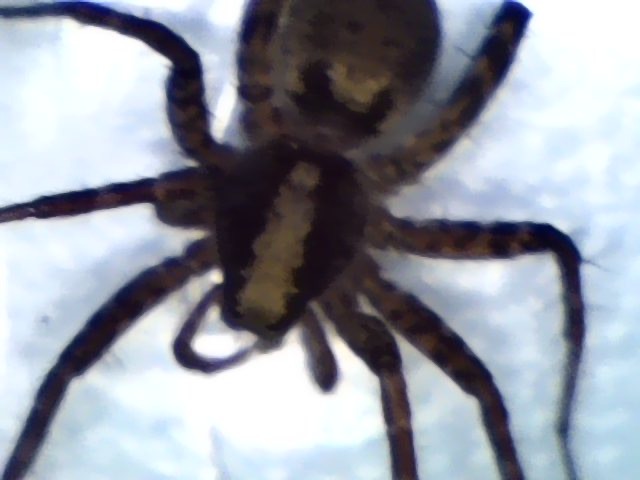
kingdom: Animalia
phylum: Arthropoda
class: Arachnida
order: Araneae
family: Lycosidae
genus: Pardosa
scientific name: Pardosa
